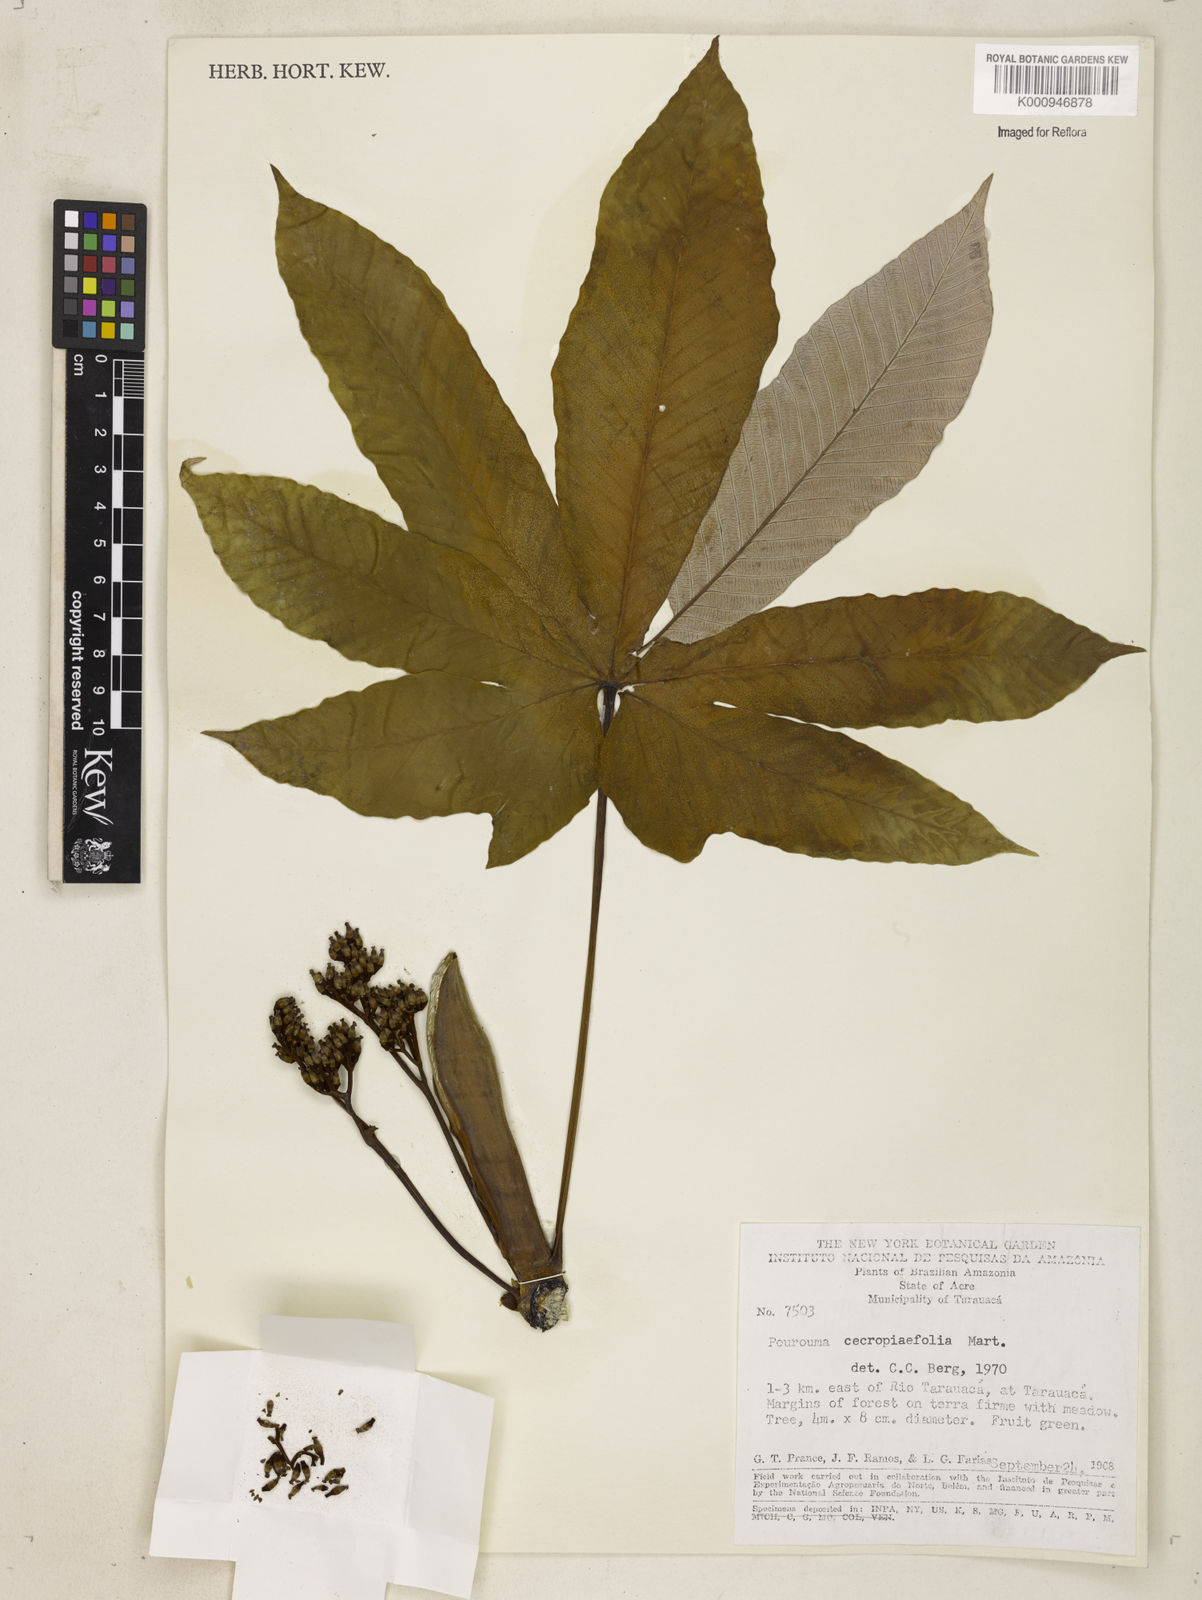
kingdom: Plantae
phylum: Tracheophyta
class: Magnoliopsida
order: Rosales
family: Urticaceae
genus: Pourouma
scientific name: Pourouma cecropiifolia
